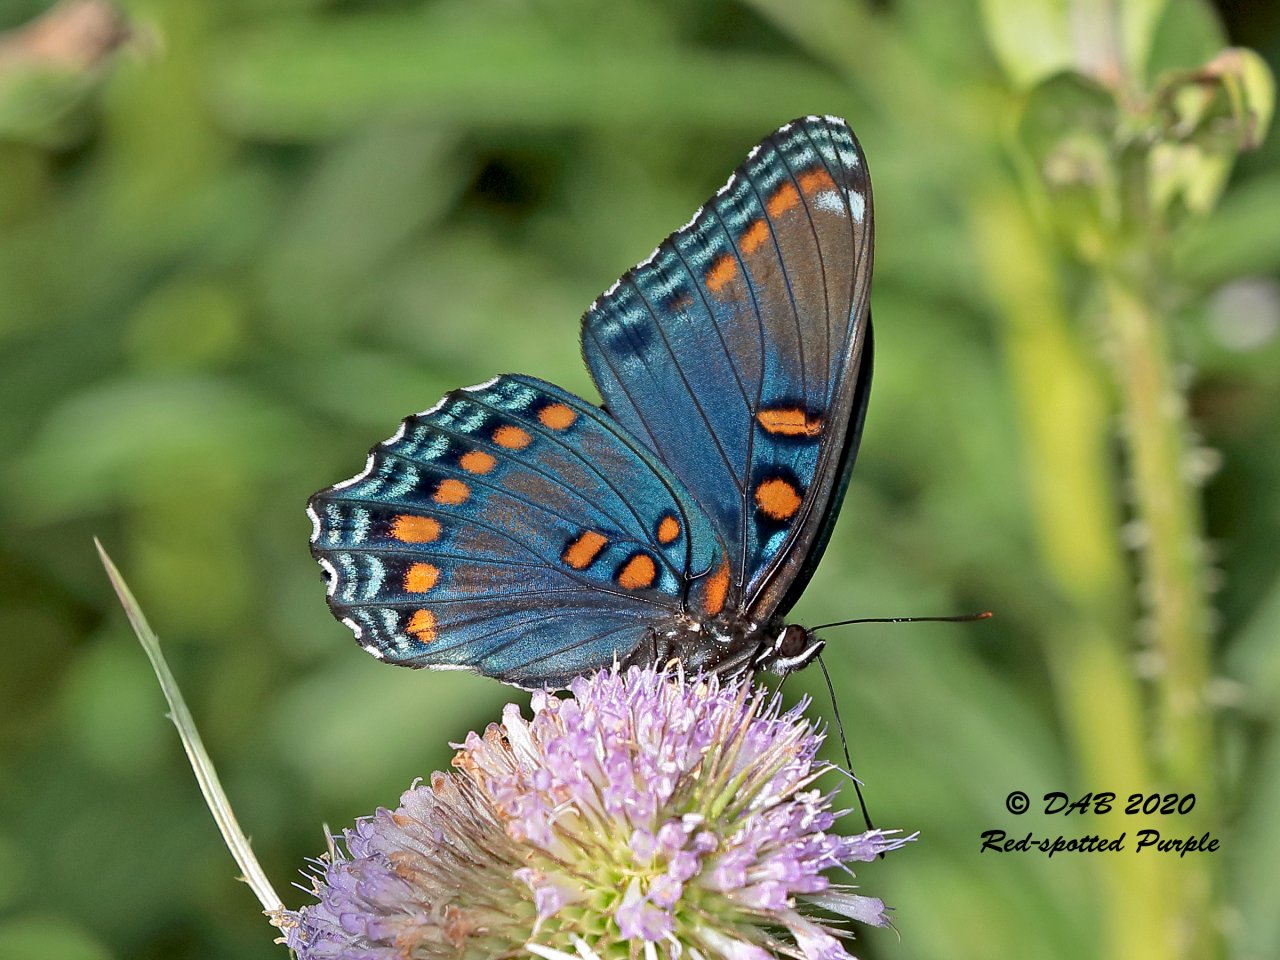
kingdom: Animalia
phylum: Arthropoda
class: Insecta
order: Lepidoptera
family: Nymphalidae
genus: Limenitis
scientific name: Limenitis astyanax
